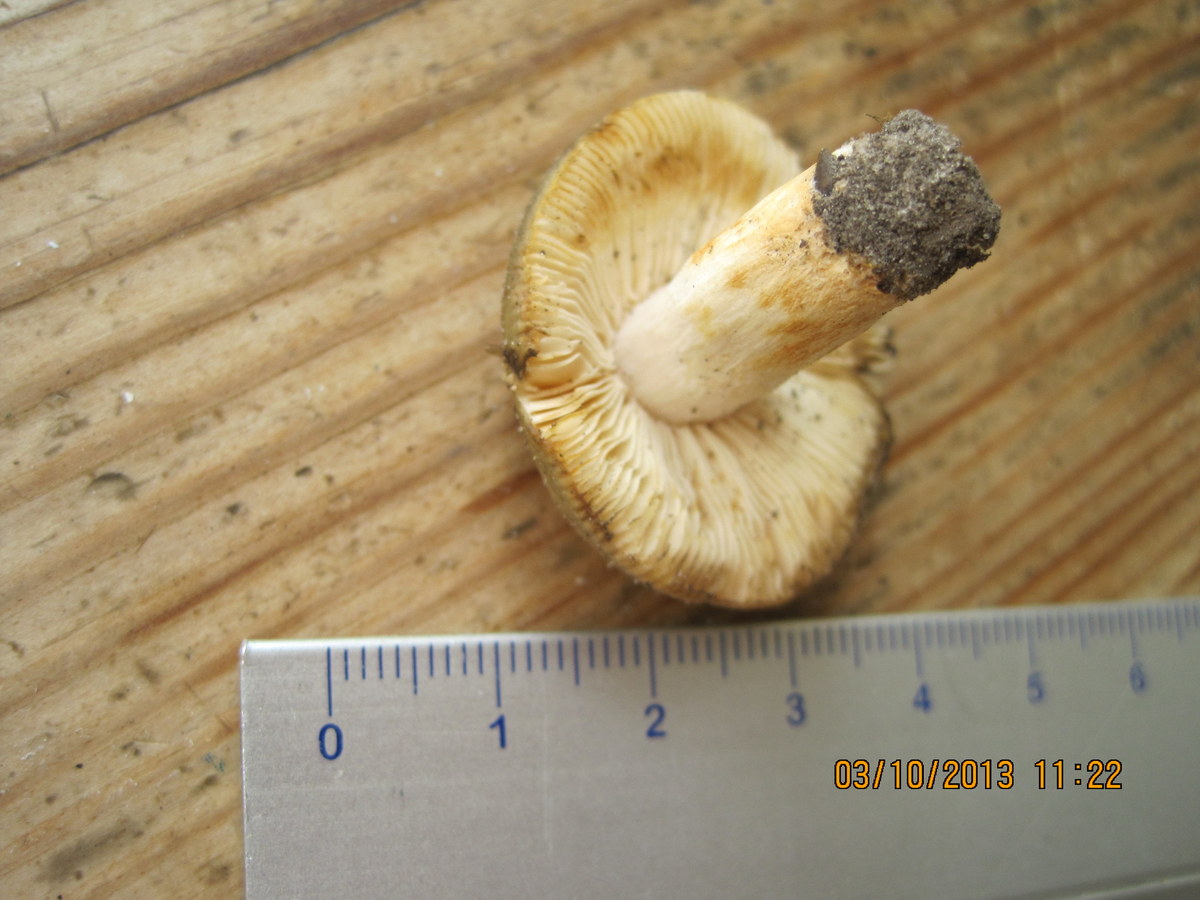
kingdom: Fungi
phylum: Basidiomycota
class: Agaricomycetes
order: Russulales
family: Russulaceae
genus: Russula
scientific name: Russula versicolor
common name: foranderlig skørhat
